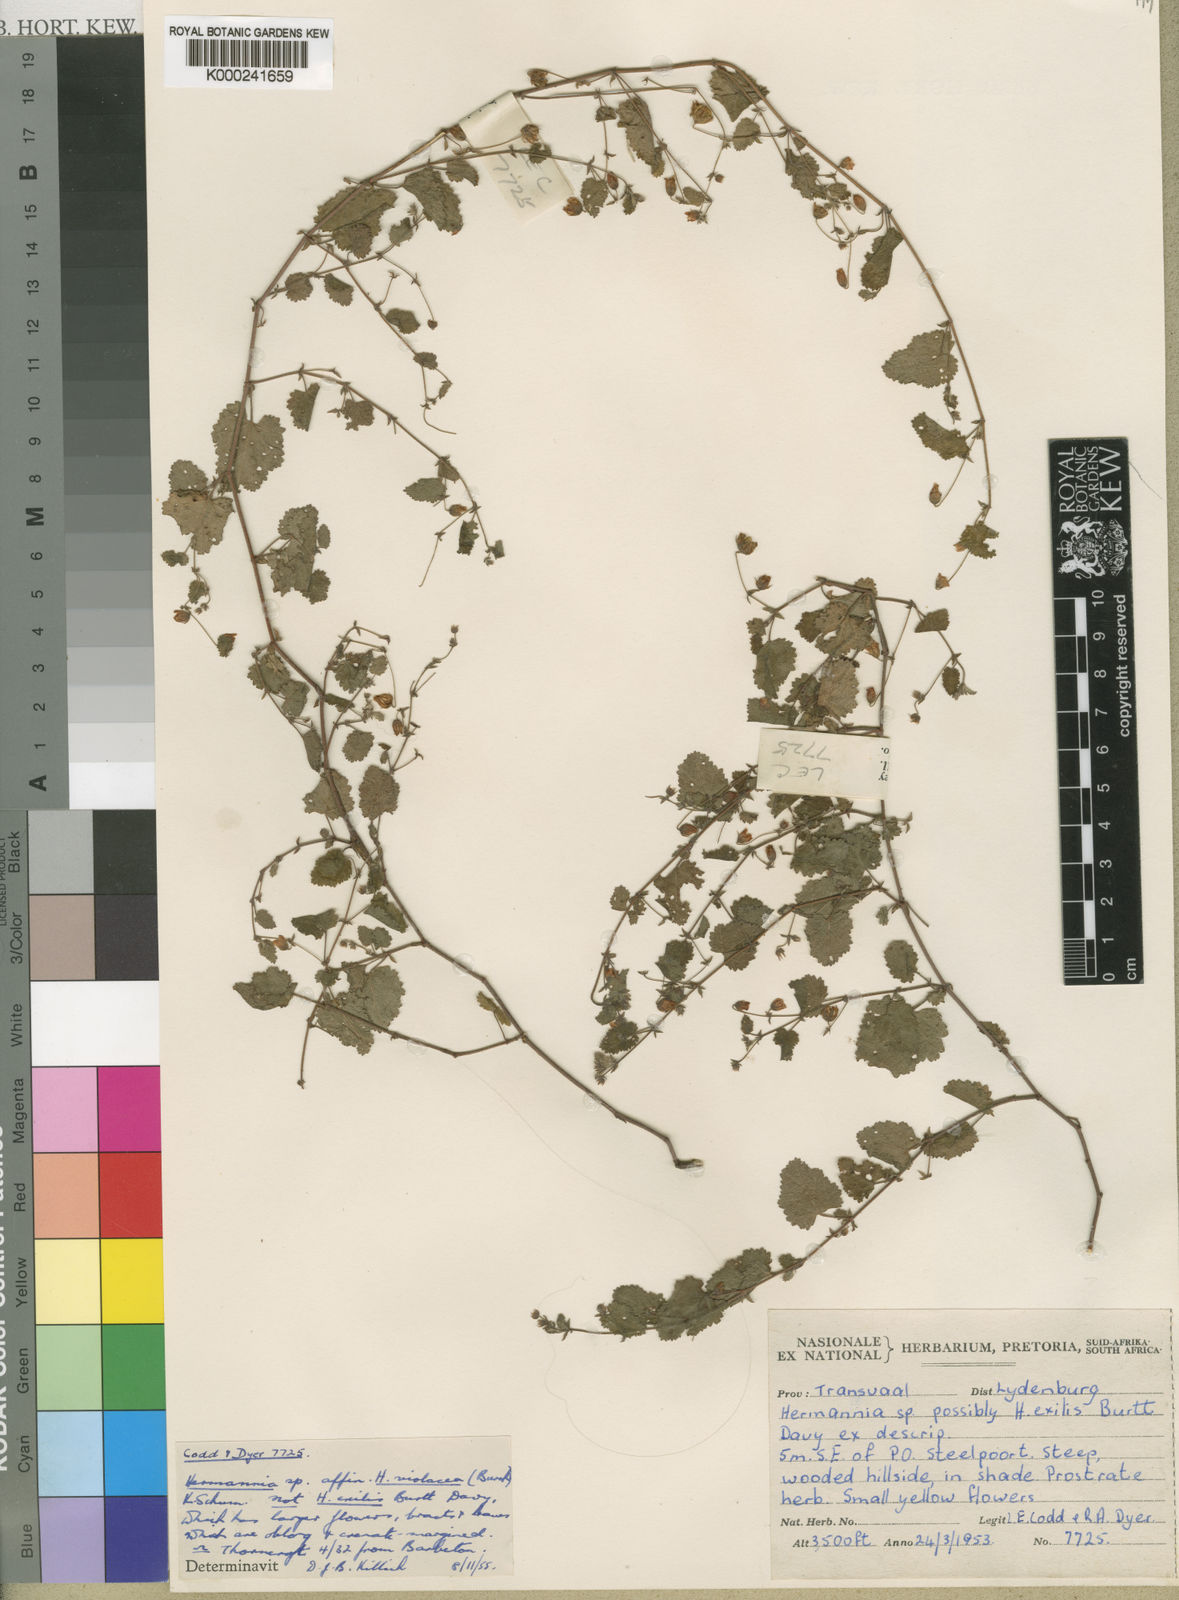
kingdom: Plantae
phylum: Tracheophyta
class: Magnoliopsida
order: Malvales
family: Malvaceae
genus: Hermannia
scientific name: Hermannia
